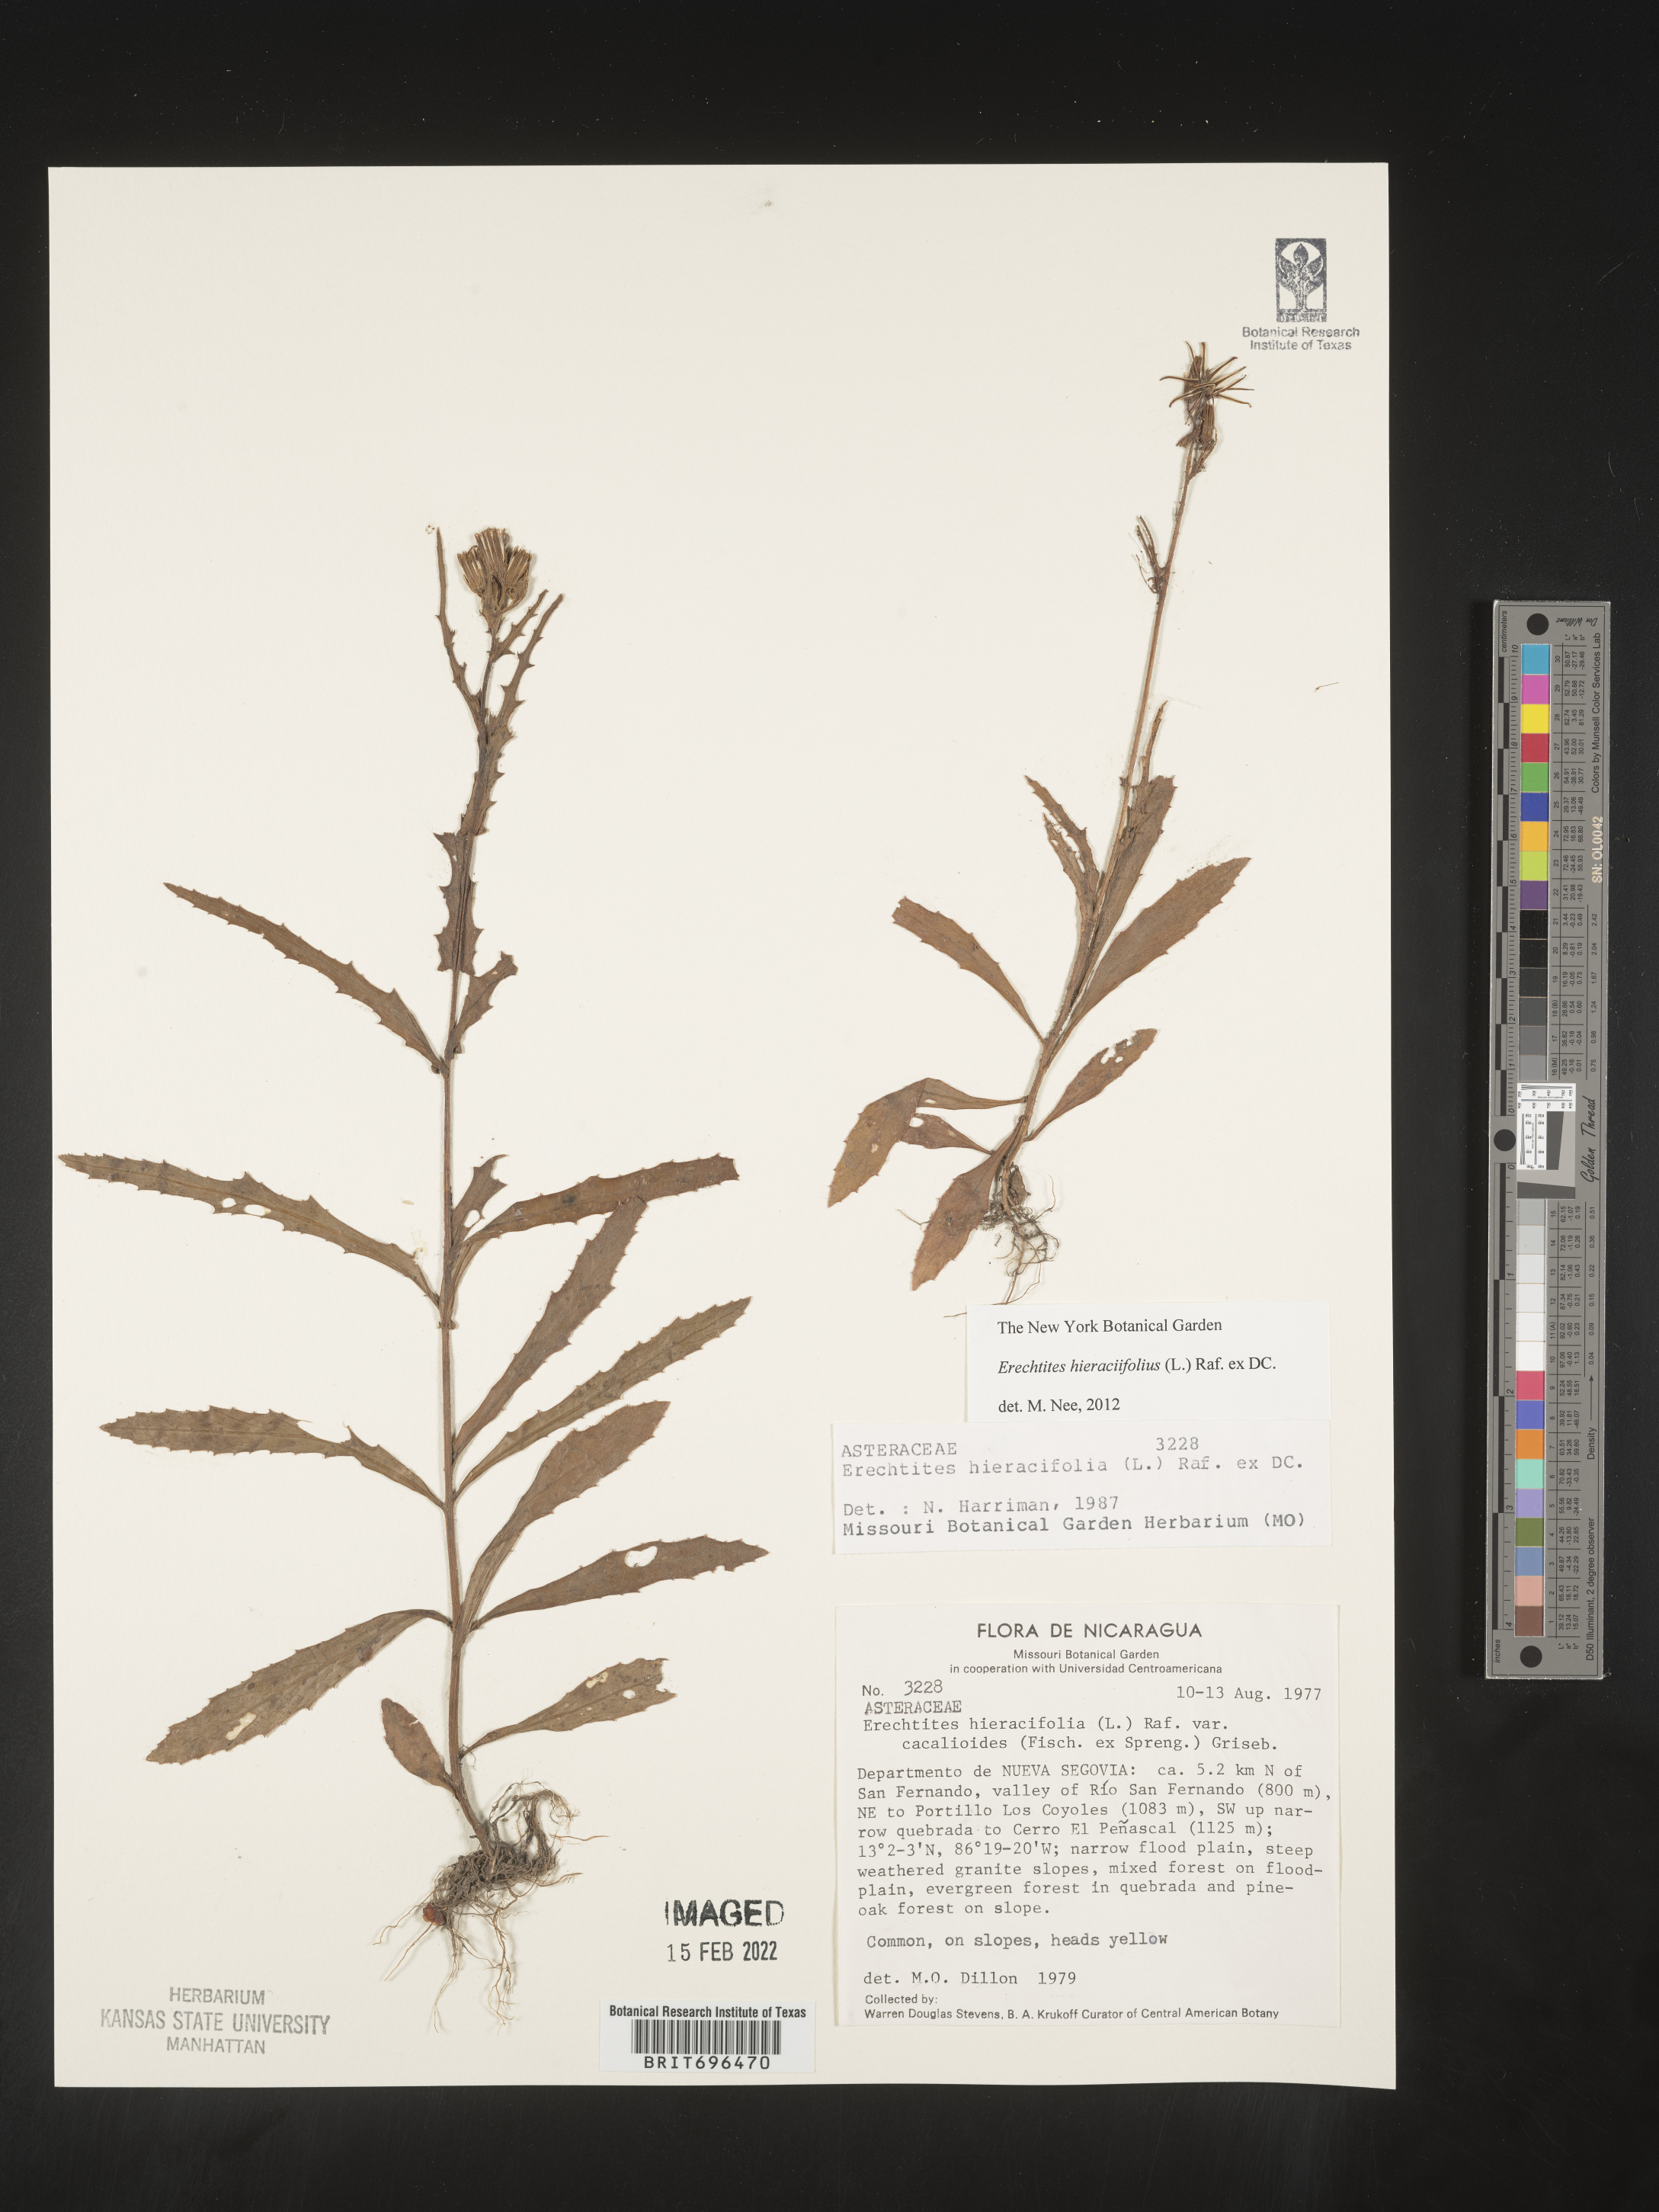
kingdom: Plantae
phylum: Tracheophyta
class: Magnoliopsida
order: Asterales
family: Asteraceae
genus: Erechtites
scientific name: Erechtites
